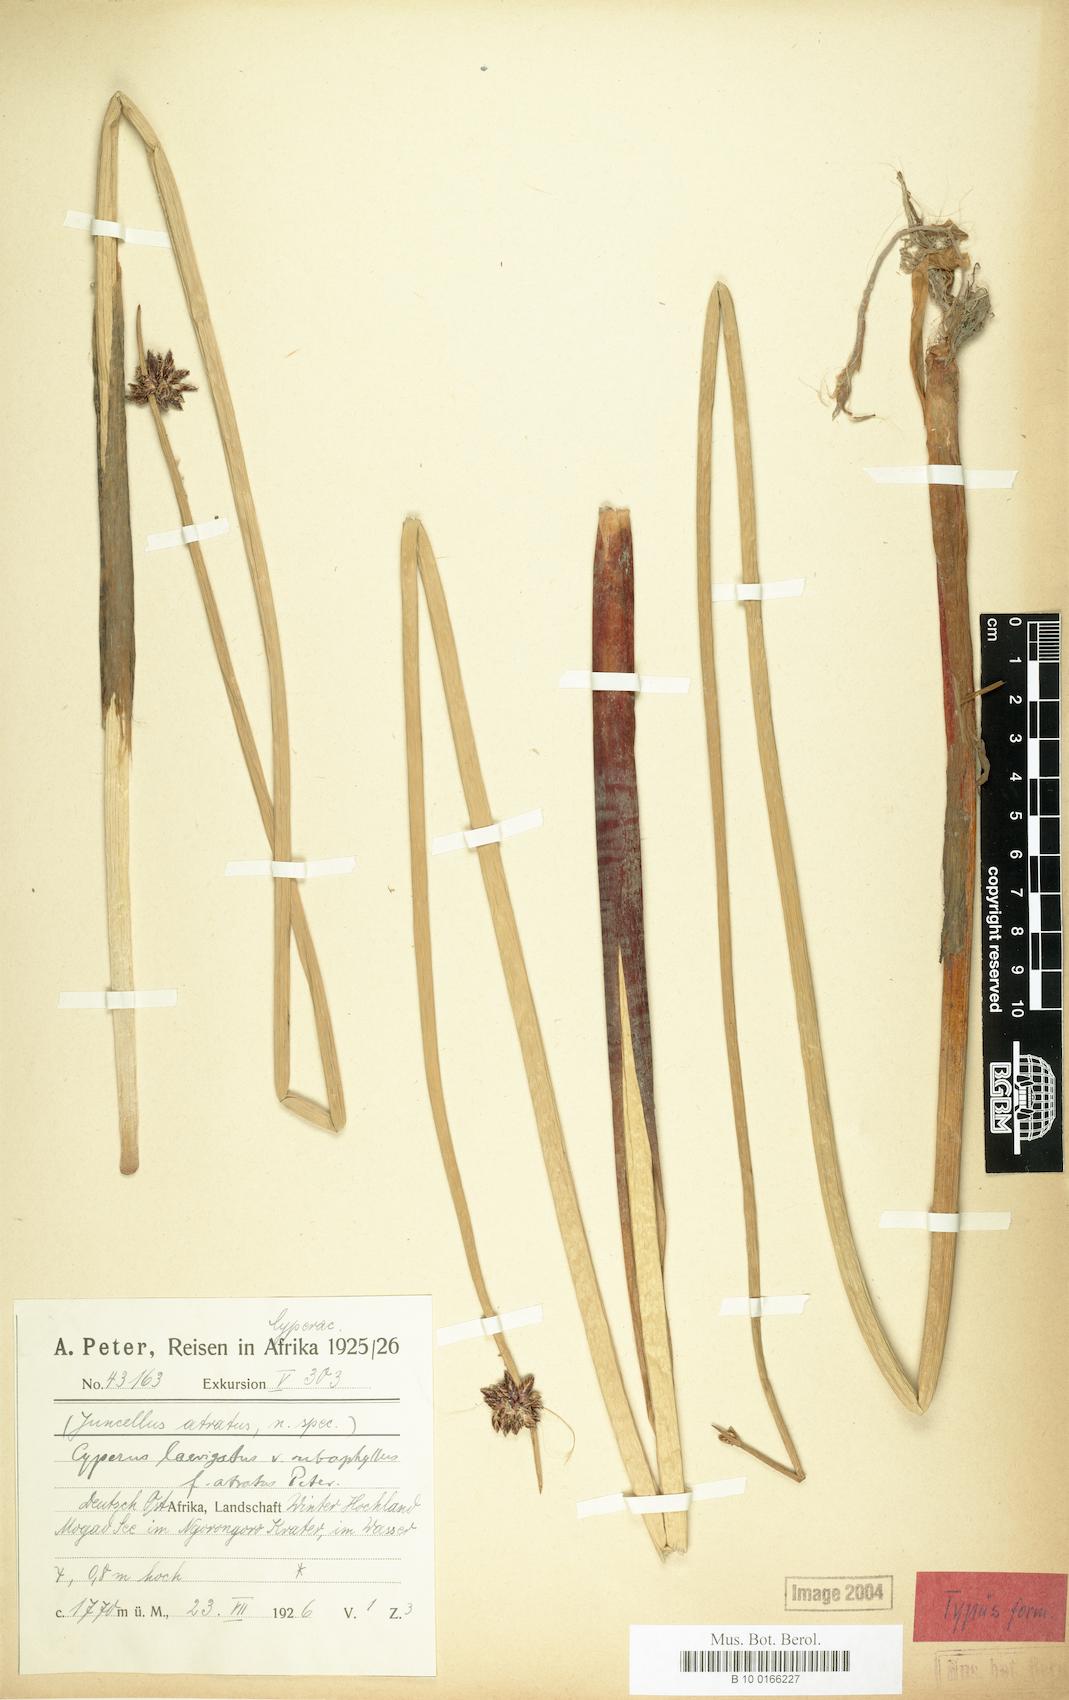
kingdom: Plantae
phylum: Tracheophyta
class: Liliopsida
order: Poales
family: Cyperaceae
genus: Cyperus
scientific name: Cyperus laevigatus
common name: Smooth flat sedge
